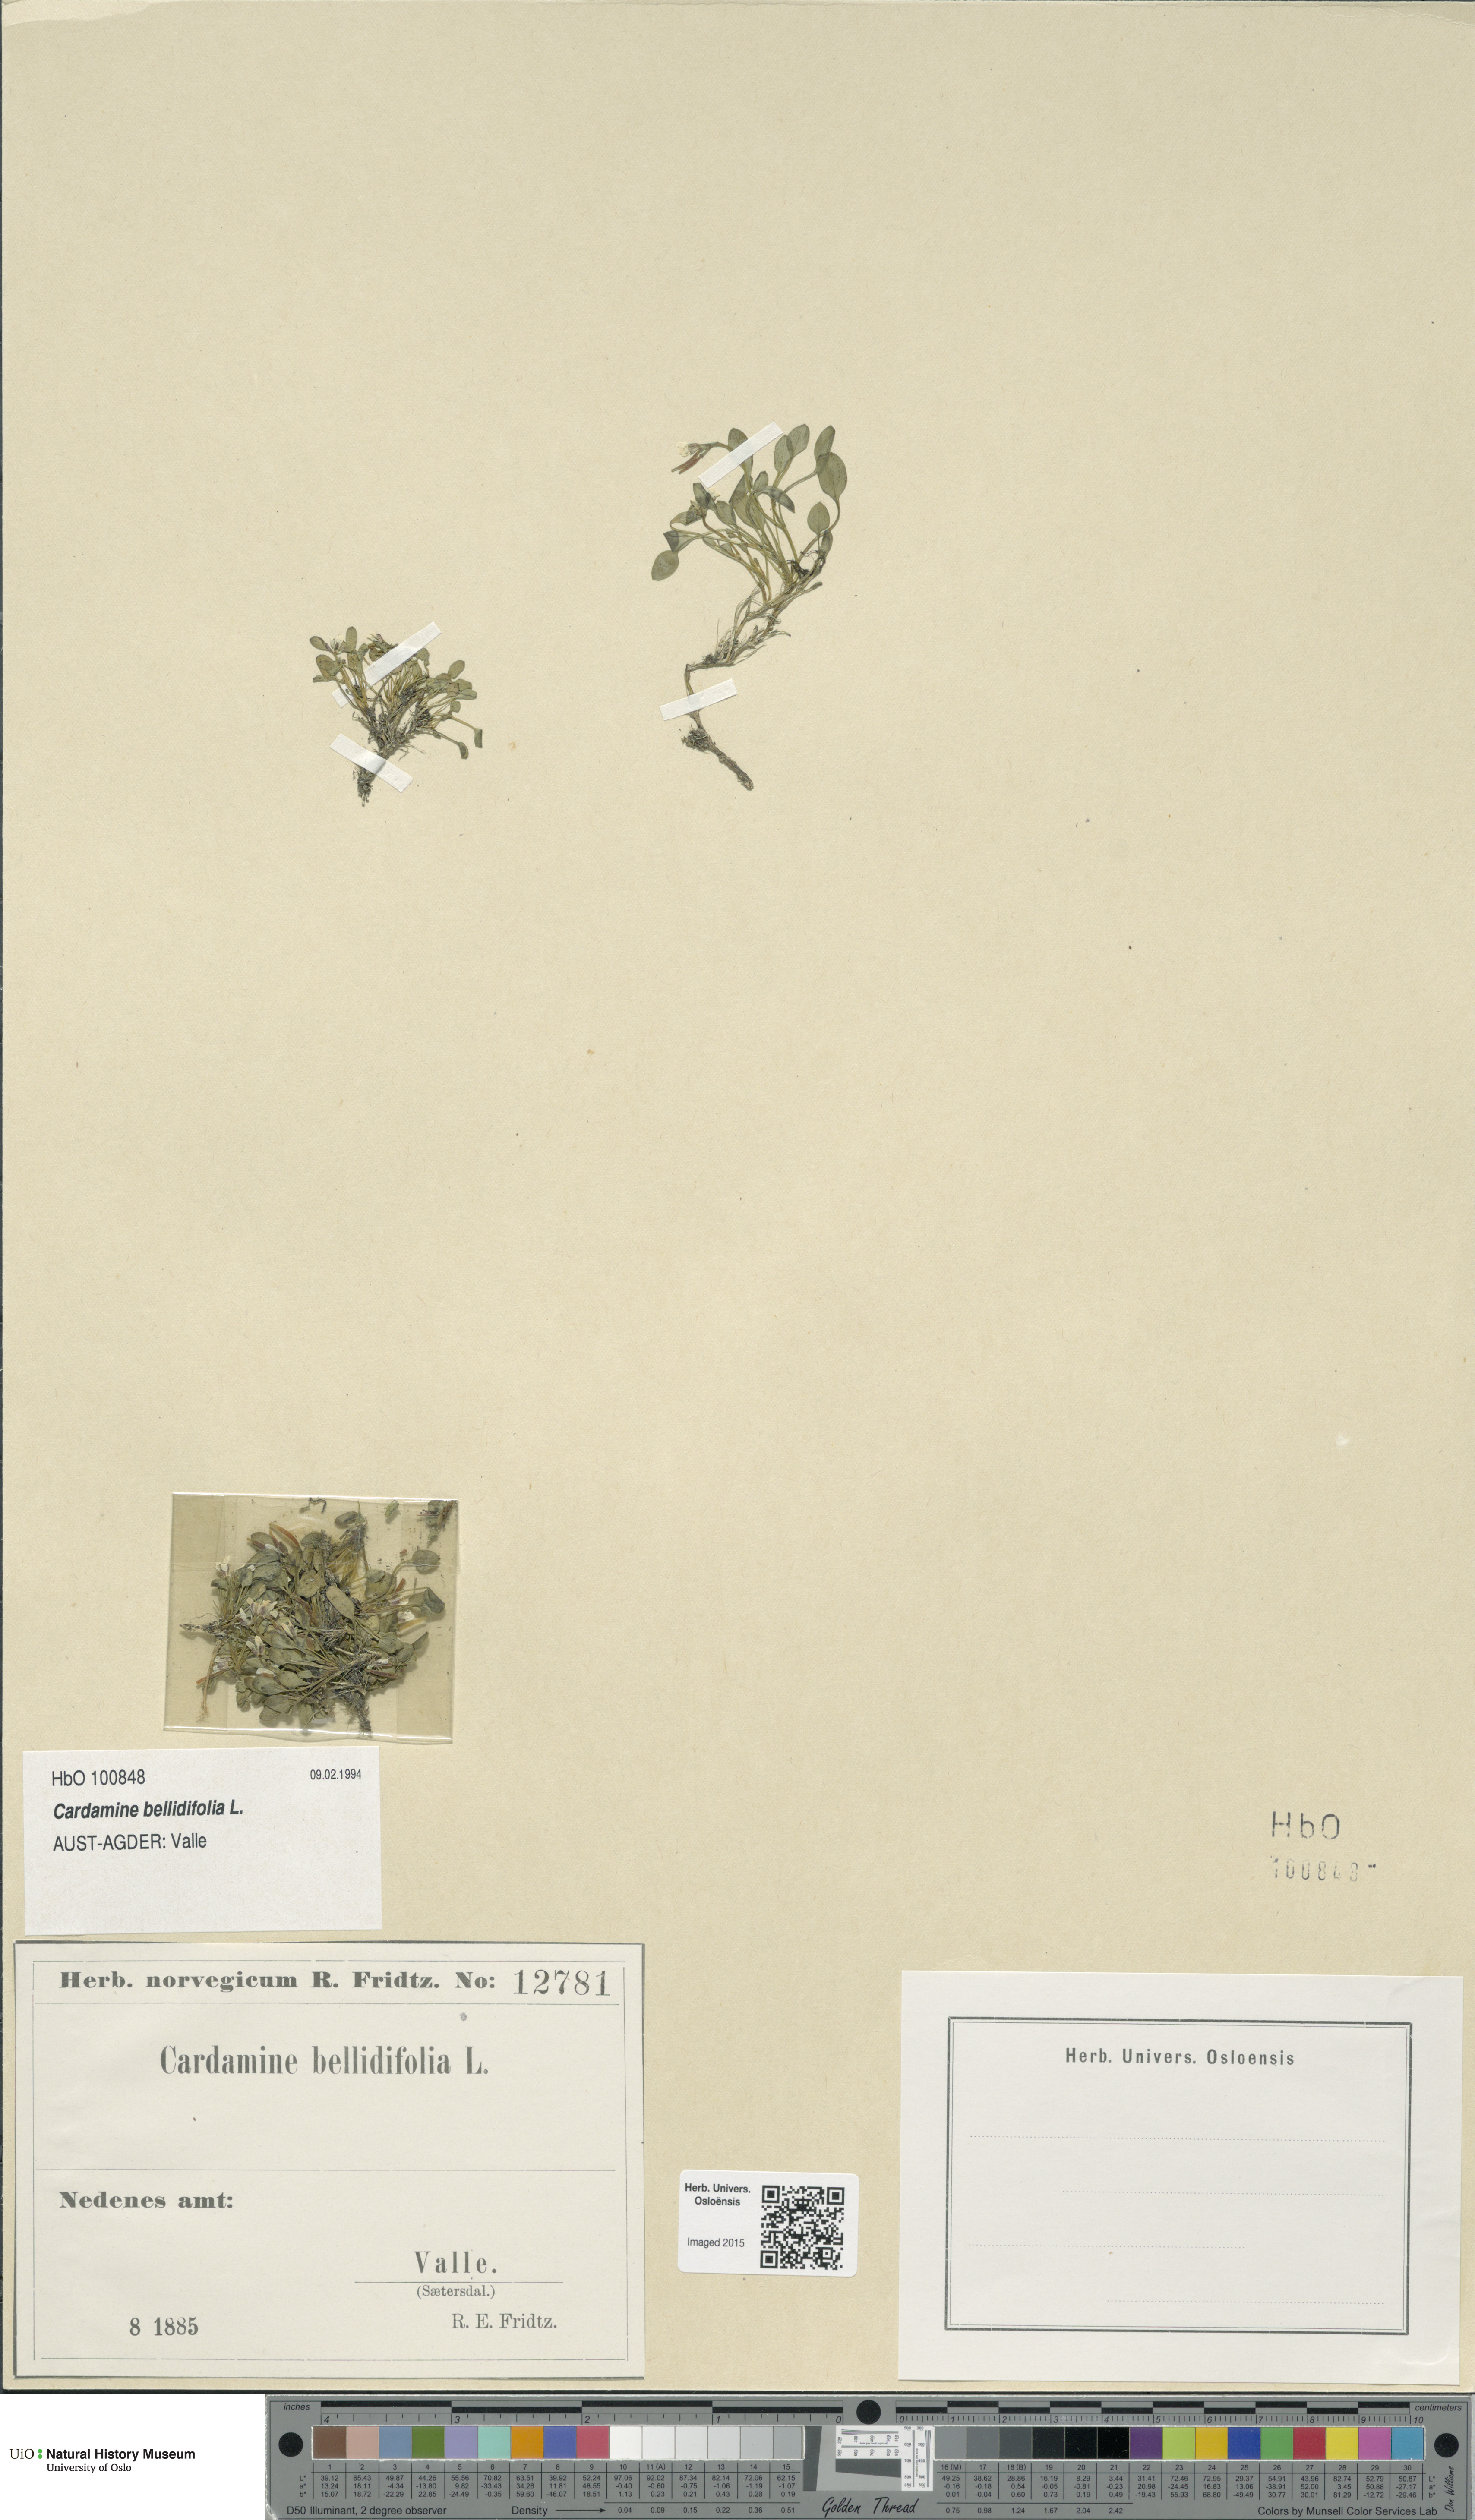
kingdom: Plantae
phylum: Tracheophyta
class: Magnoliopsida
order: Brassicales
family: Brassicaceae
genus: Cardamine
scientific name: Cardamine bellidifolia
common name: Alpine bittercress
